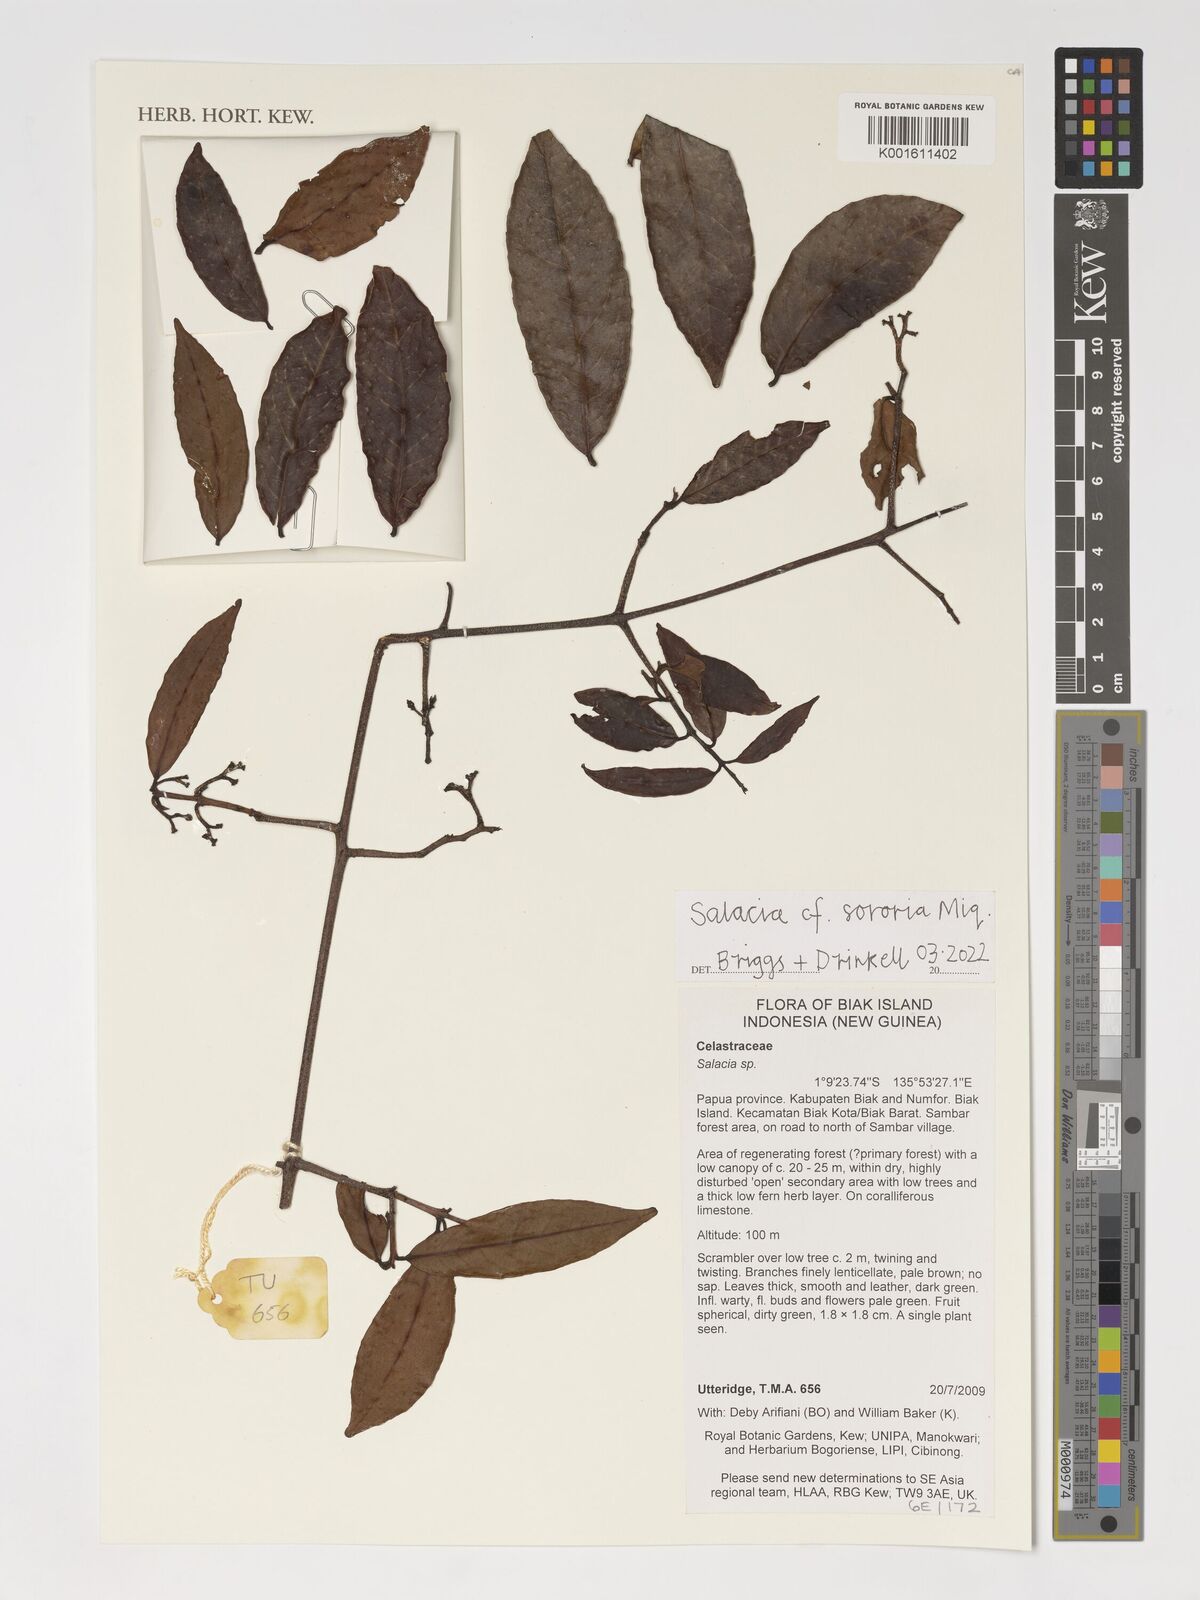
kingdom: Plantae
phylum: Tracheophyta
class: Magnoliopsida
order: Celastrales
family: Celastraceae
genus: Salacia
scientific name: Salacia sororia
